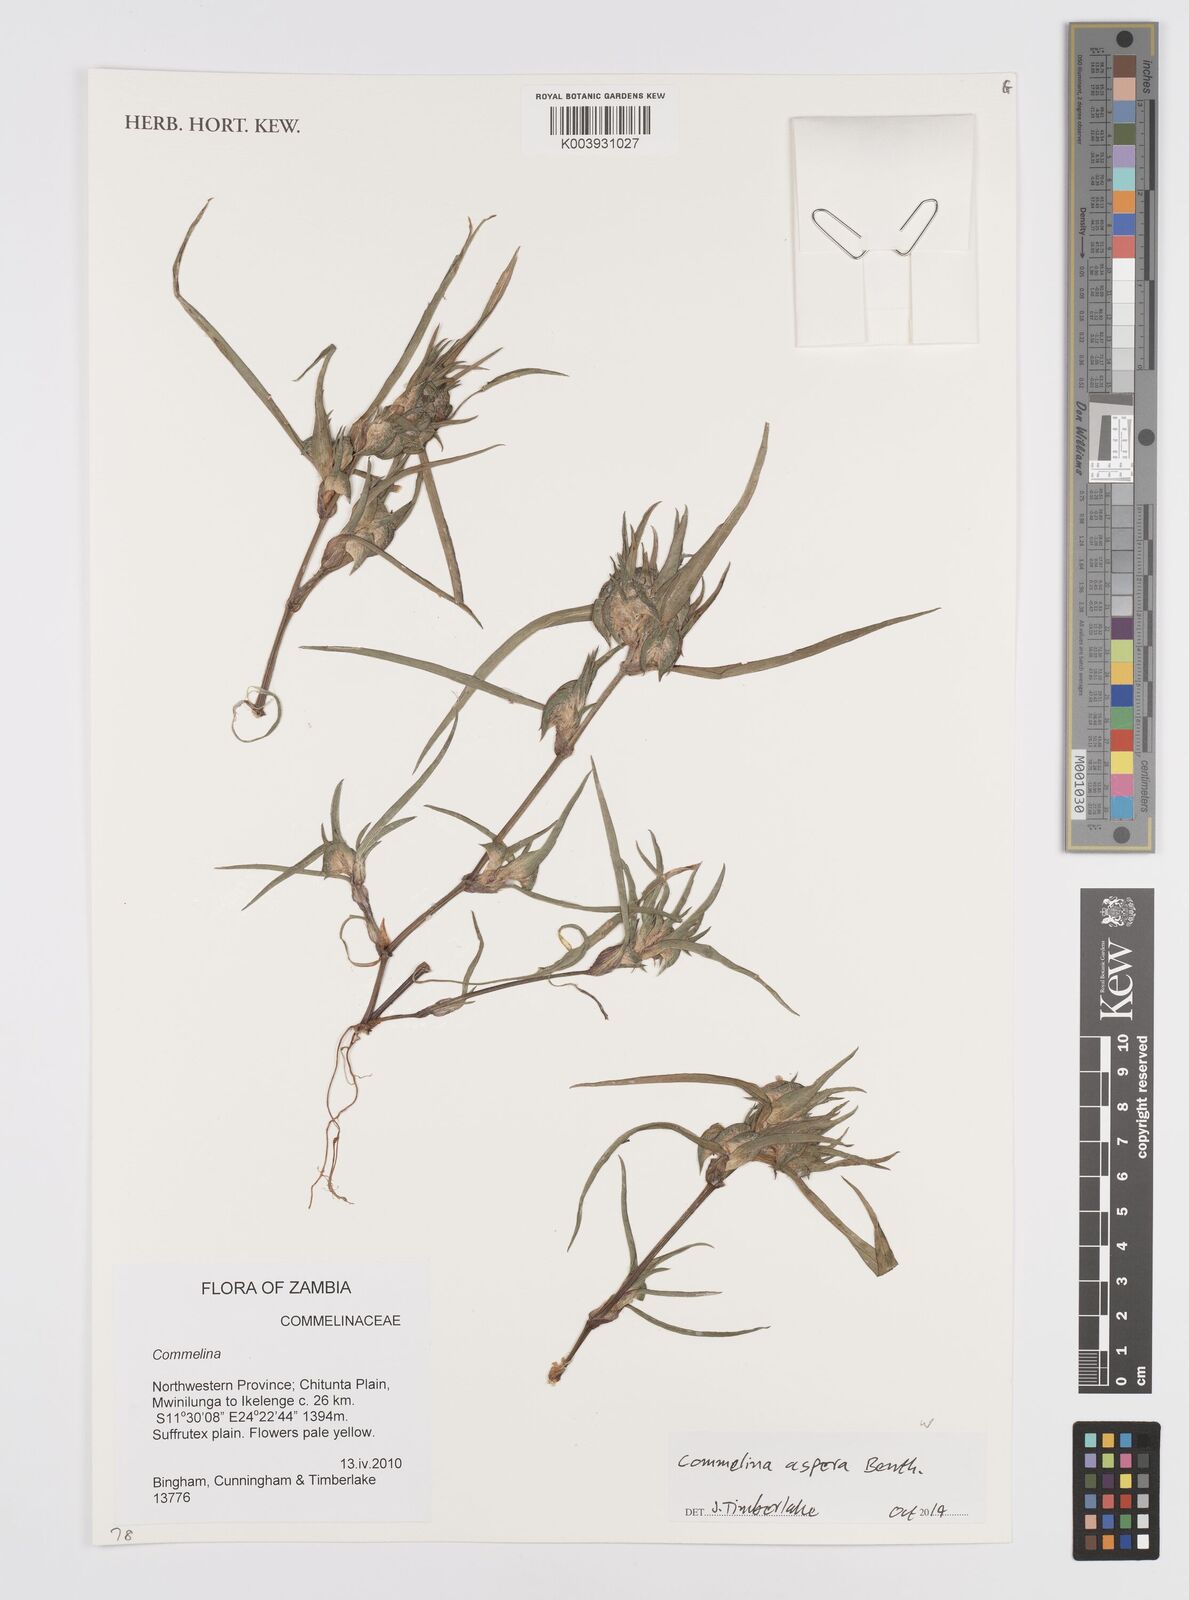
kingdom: Plantae
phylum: Tracheophyta
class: Liliopsida
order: Commelinales
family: Commelinaceae
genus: Commelina
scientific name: Commelina aspera
